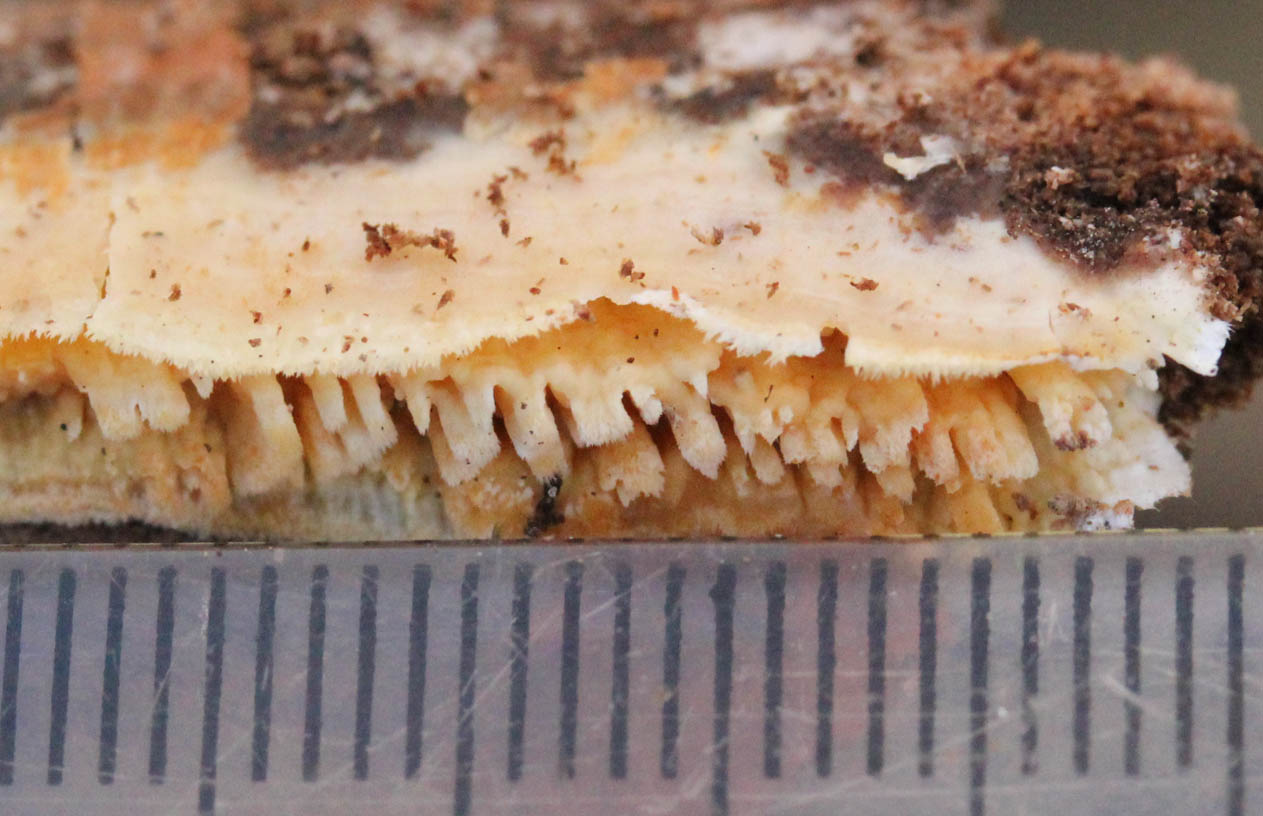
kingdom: Fungi
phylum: Basidiomycota
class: Agaricomycetes
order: Hymenochaetales
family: Schizoporaceae
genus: Xylodon
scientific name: Xylodon radula
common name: grovtandet kalkskind
